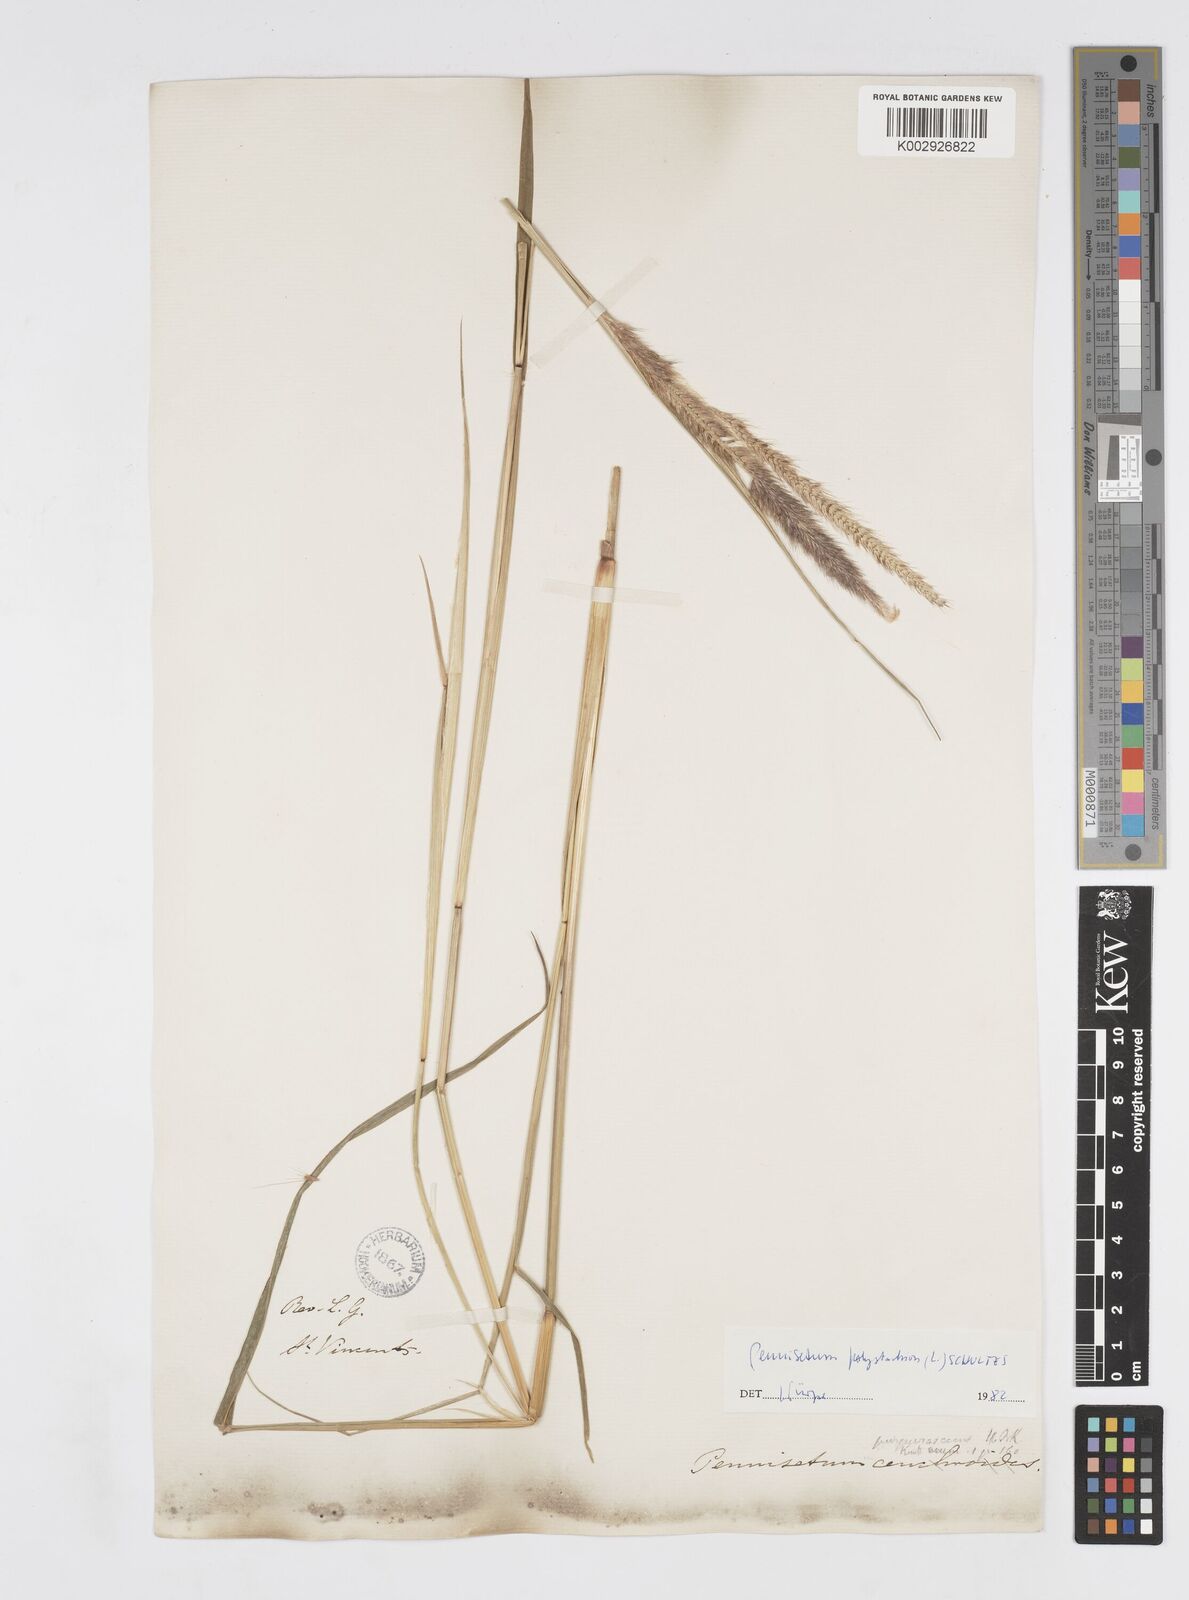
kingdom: Plantae
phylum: Tracheophyta
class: Liliopsida
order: Poales
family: Poaceae
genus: Cenchrus
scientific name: Cenchrus setosus
